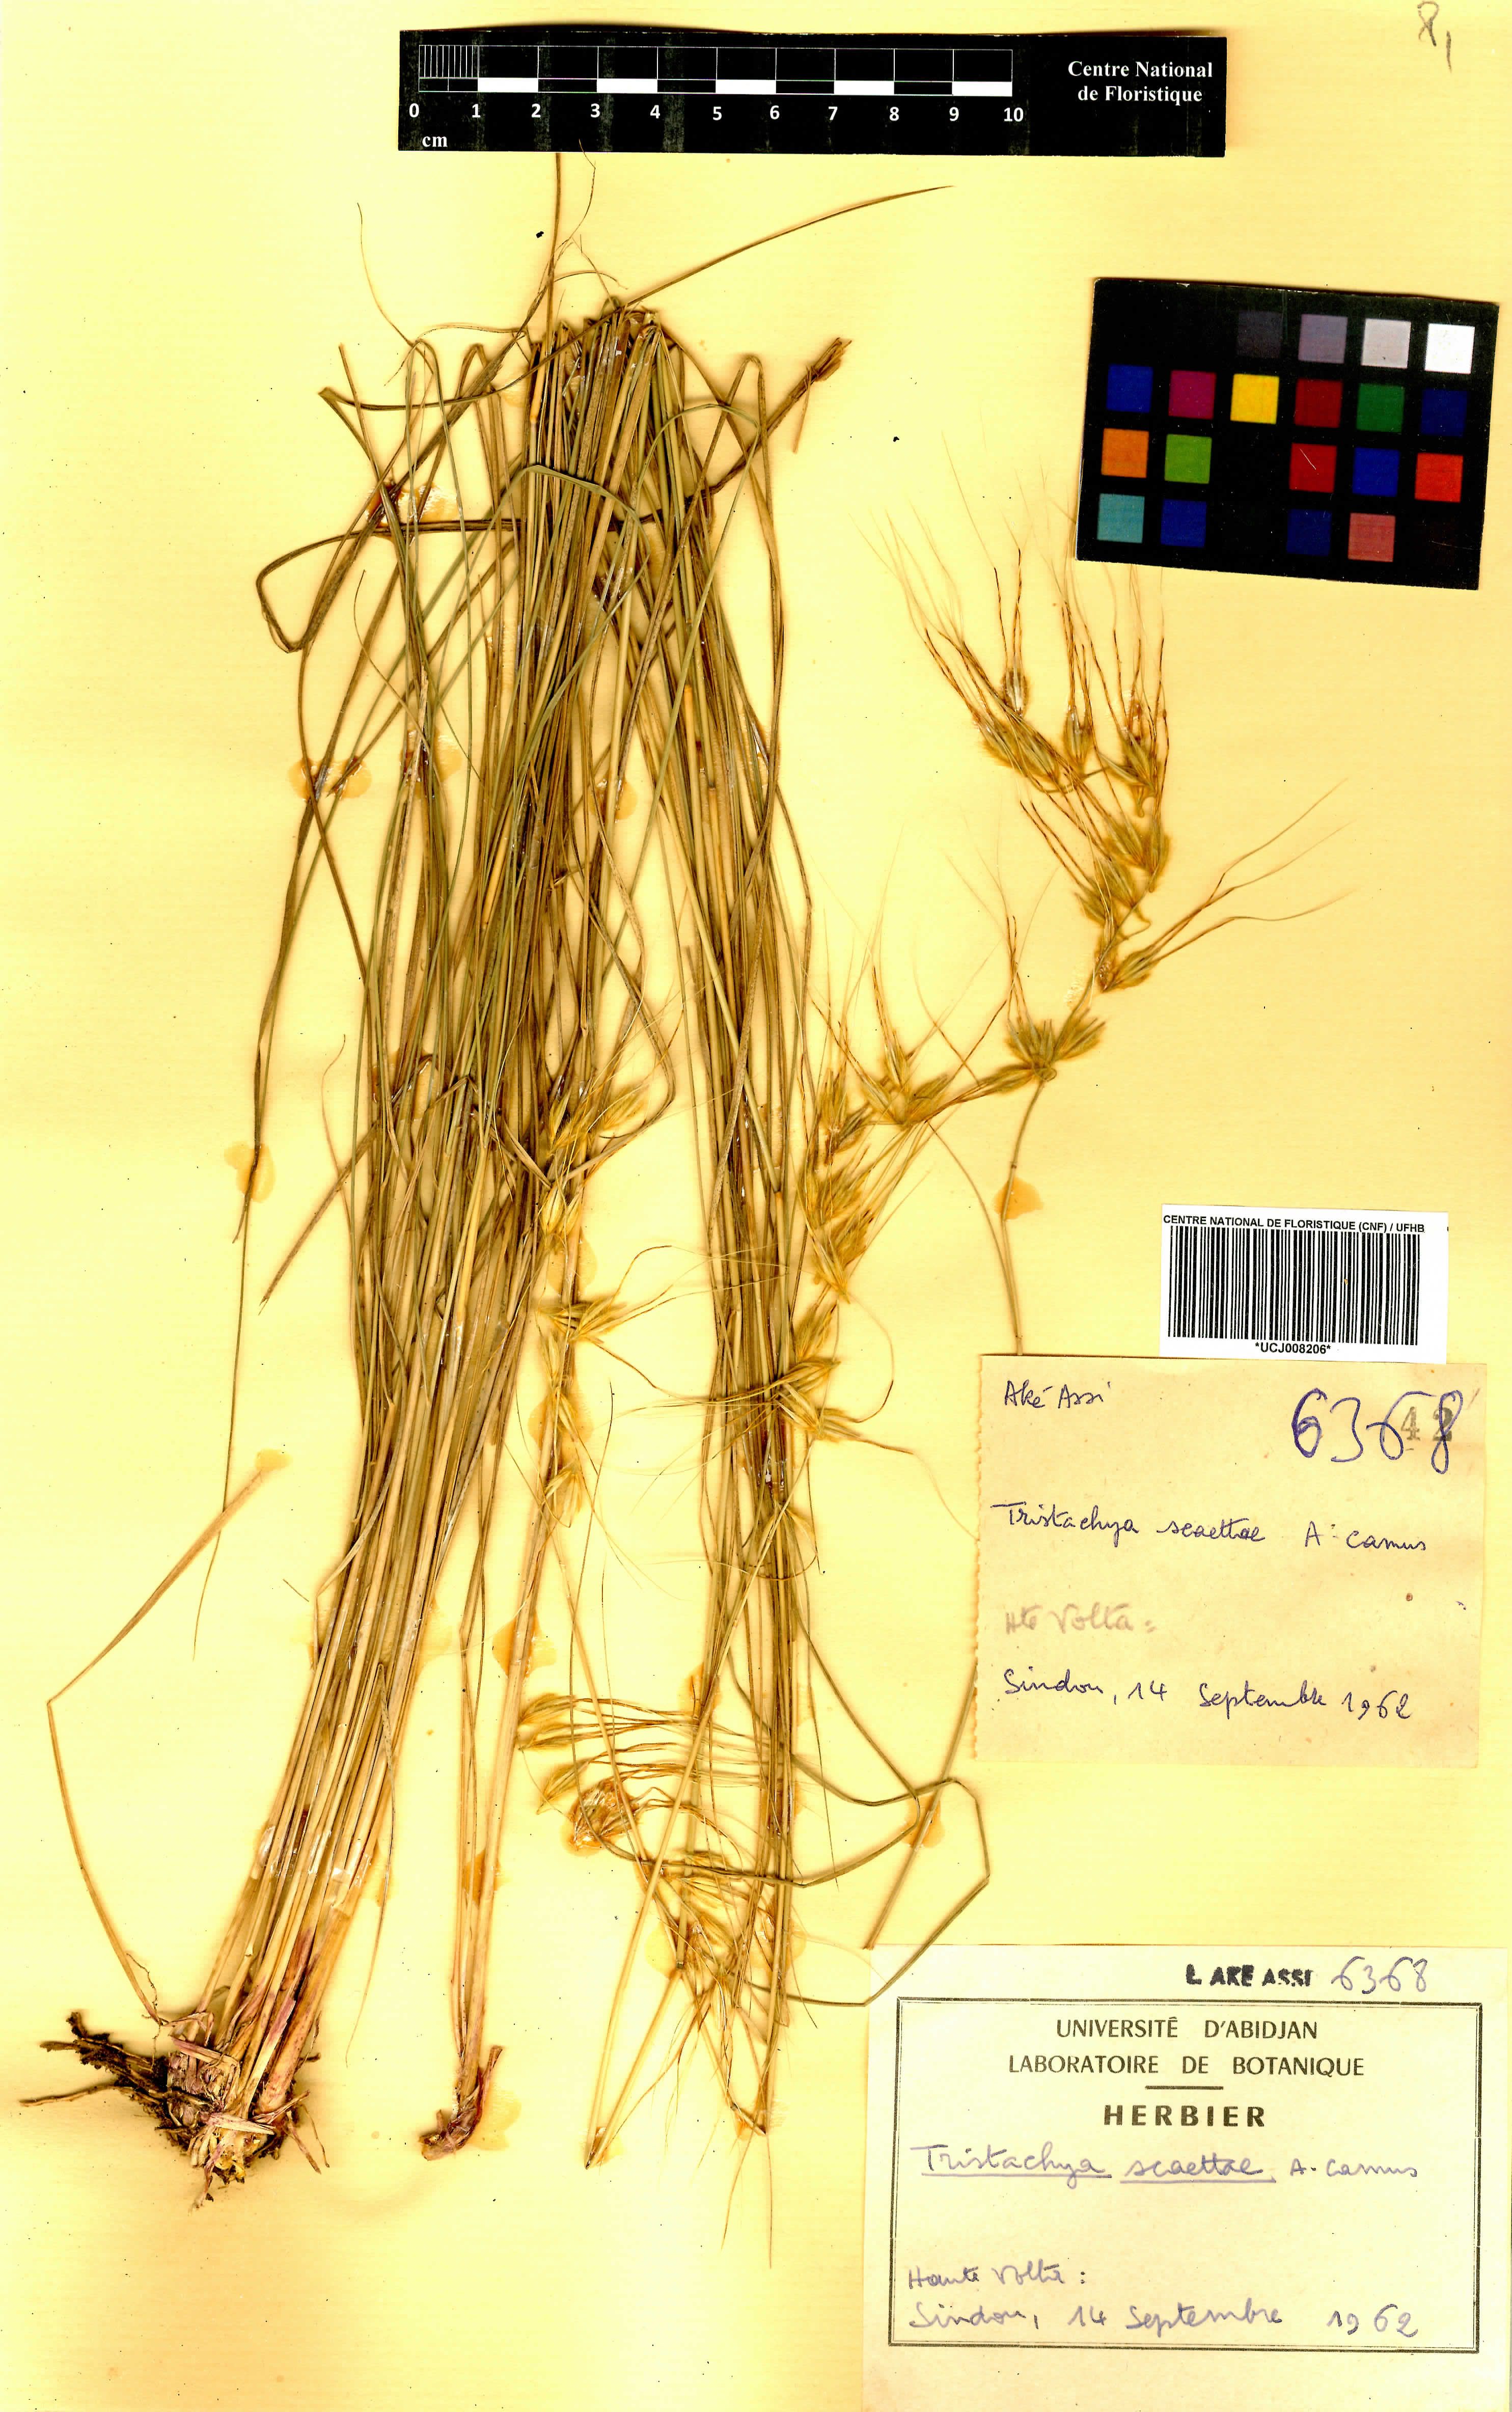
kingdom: Plantae
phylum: Tracheophyta
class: Liliopsida
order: Poales
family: Poaceae
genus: Loudetiopsis
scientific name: Loudetiopsis scaettae
